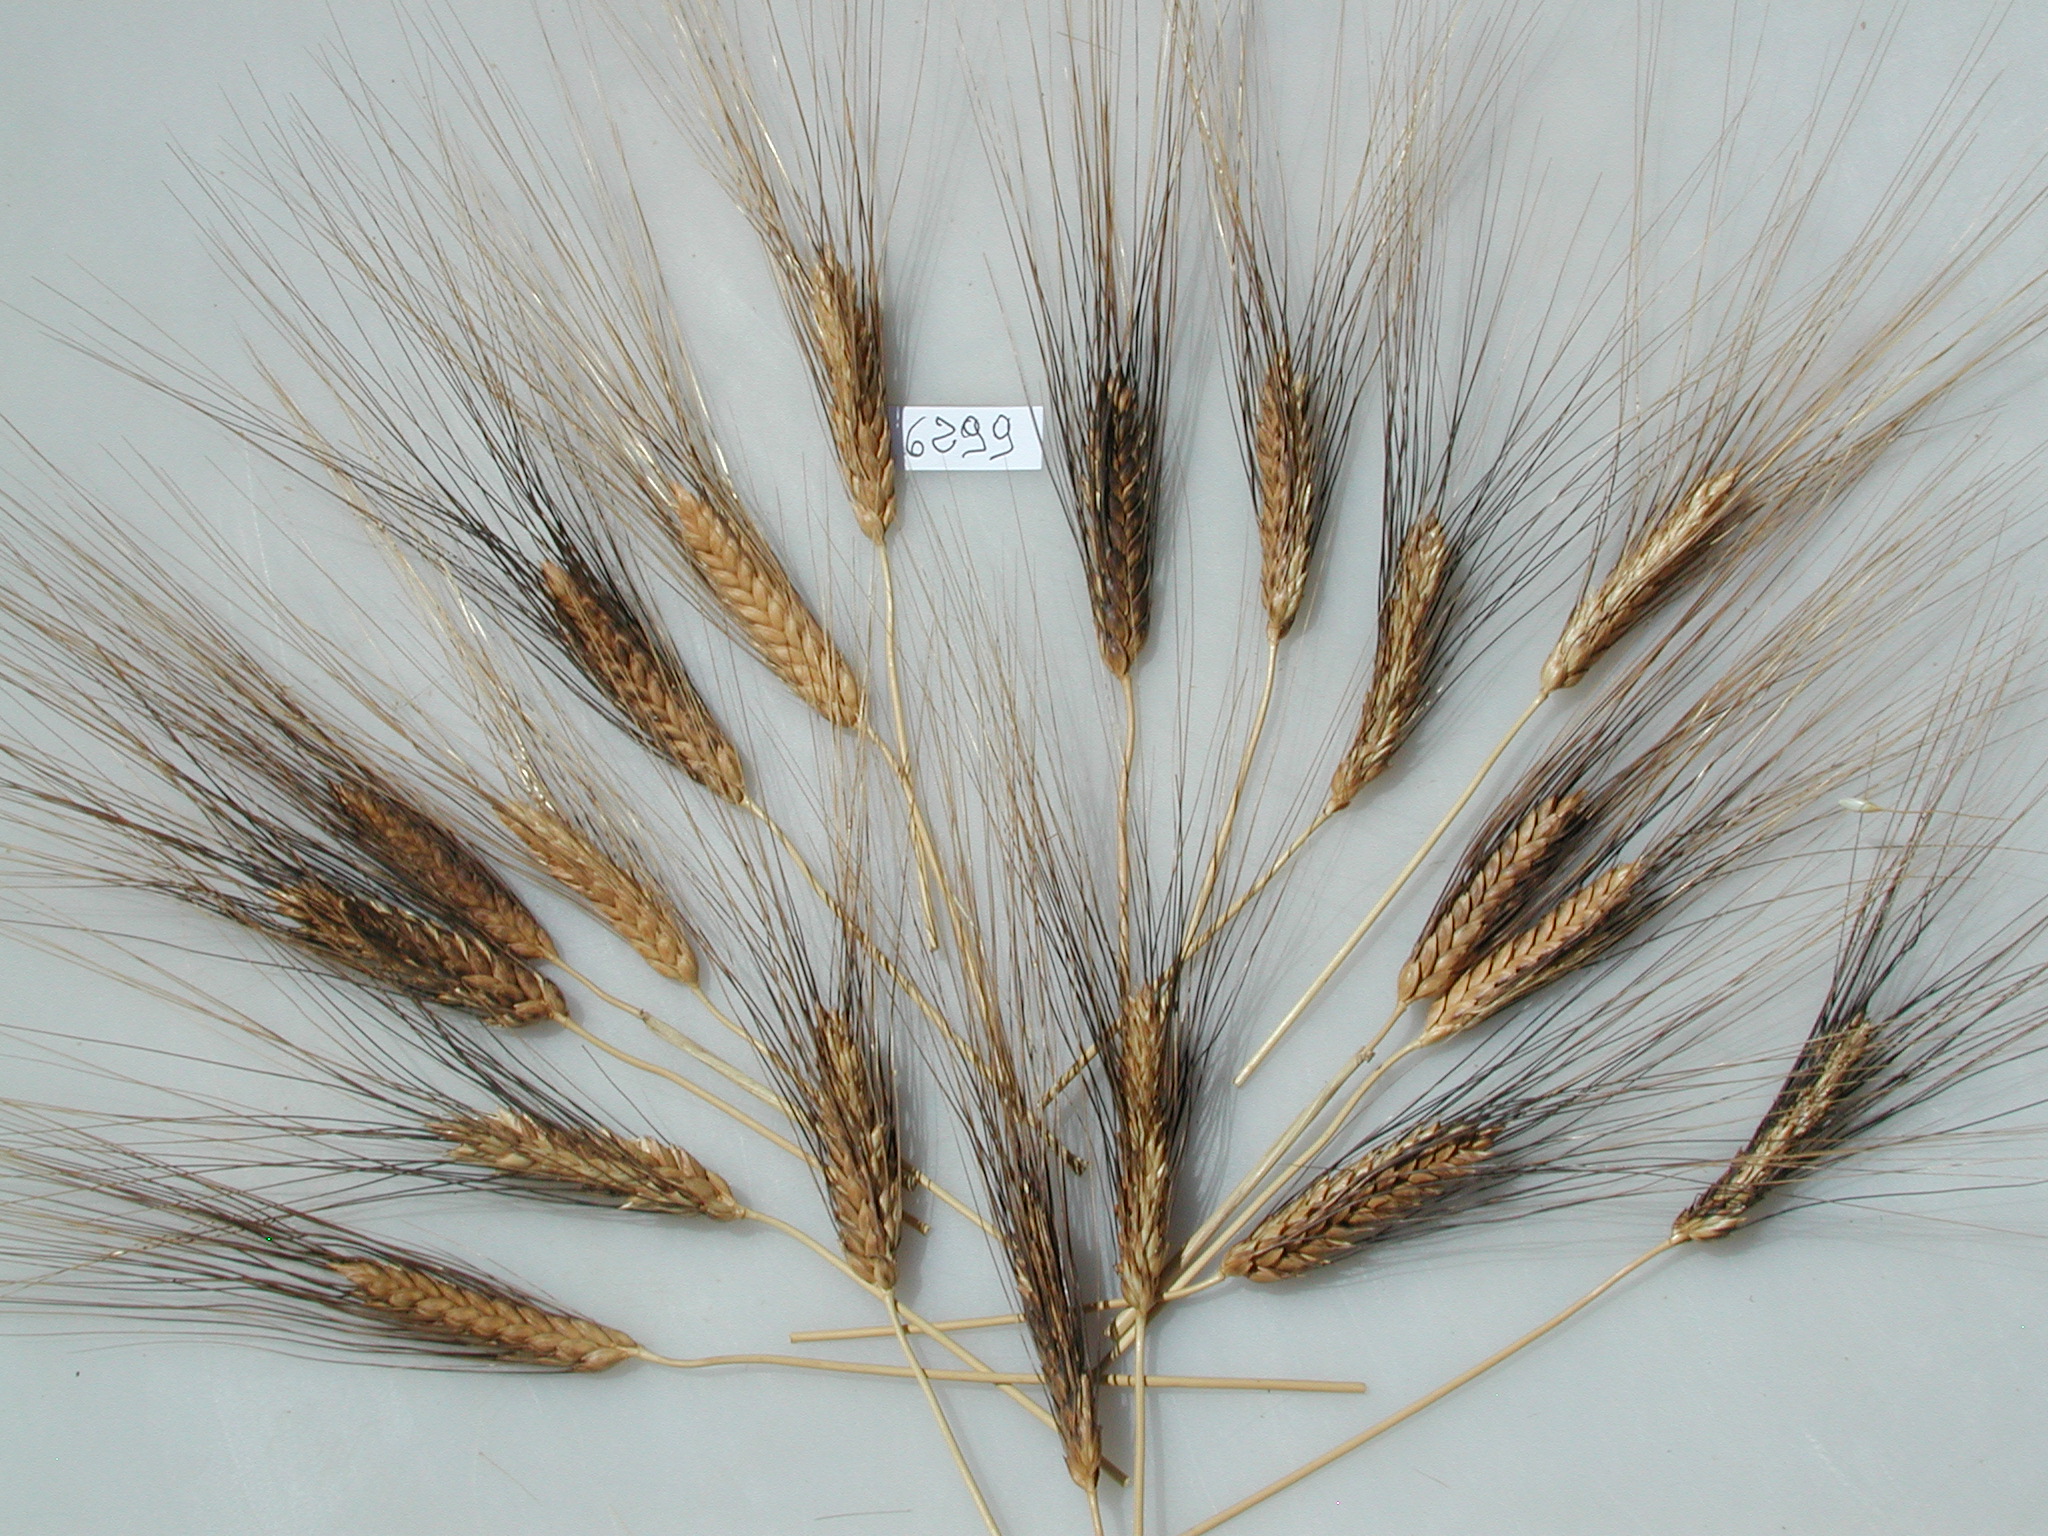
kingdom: Plantae
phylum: Tracheophyta
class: Liliopsida
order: Poales
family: Poaceae
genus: Triticum
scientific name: Triticum aestivum
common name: Wheat
